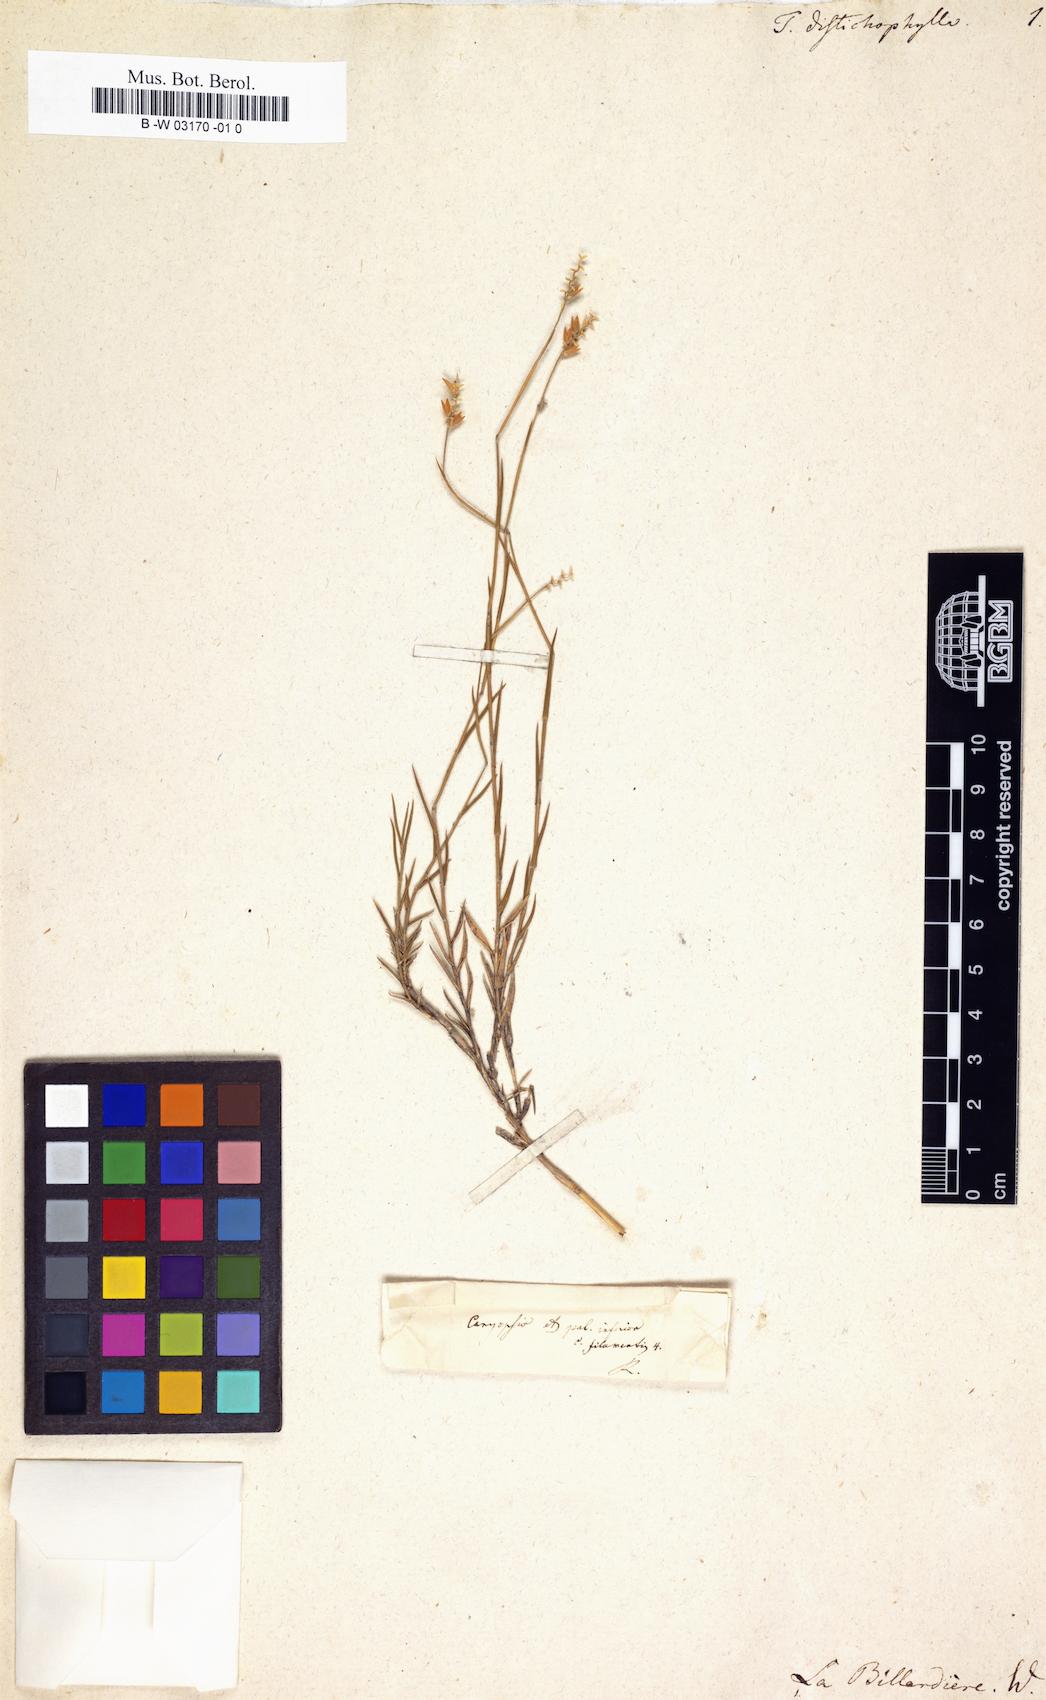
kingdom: Plantae
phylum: Tracheophyta
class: Liliopsida
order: Poales
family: Poaceae
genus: Tetrarrhena
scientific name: Tetrarrhena distichophylla
